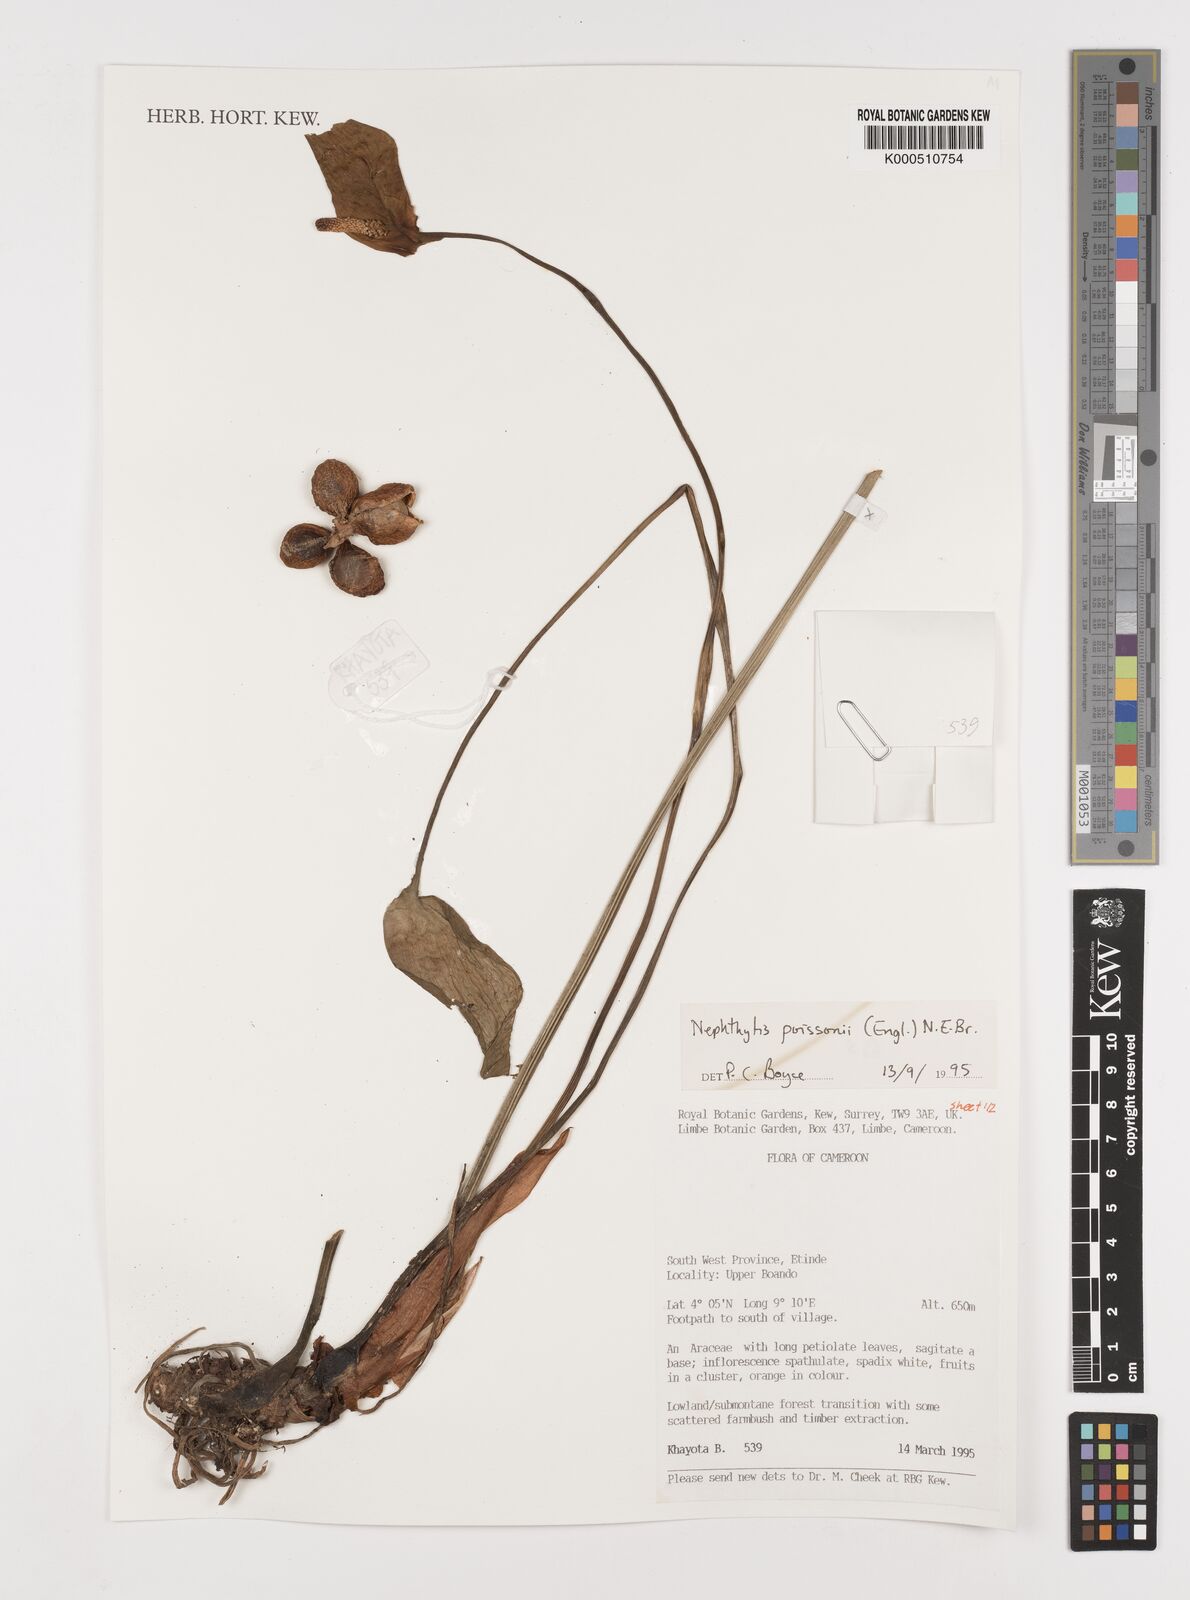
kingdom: Plantae
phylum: Tracheophyta
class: Liliopsida
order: Alismatales
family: Araceae
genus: Nephthytis
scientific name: Nephthytis poissonii
